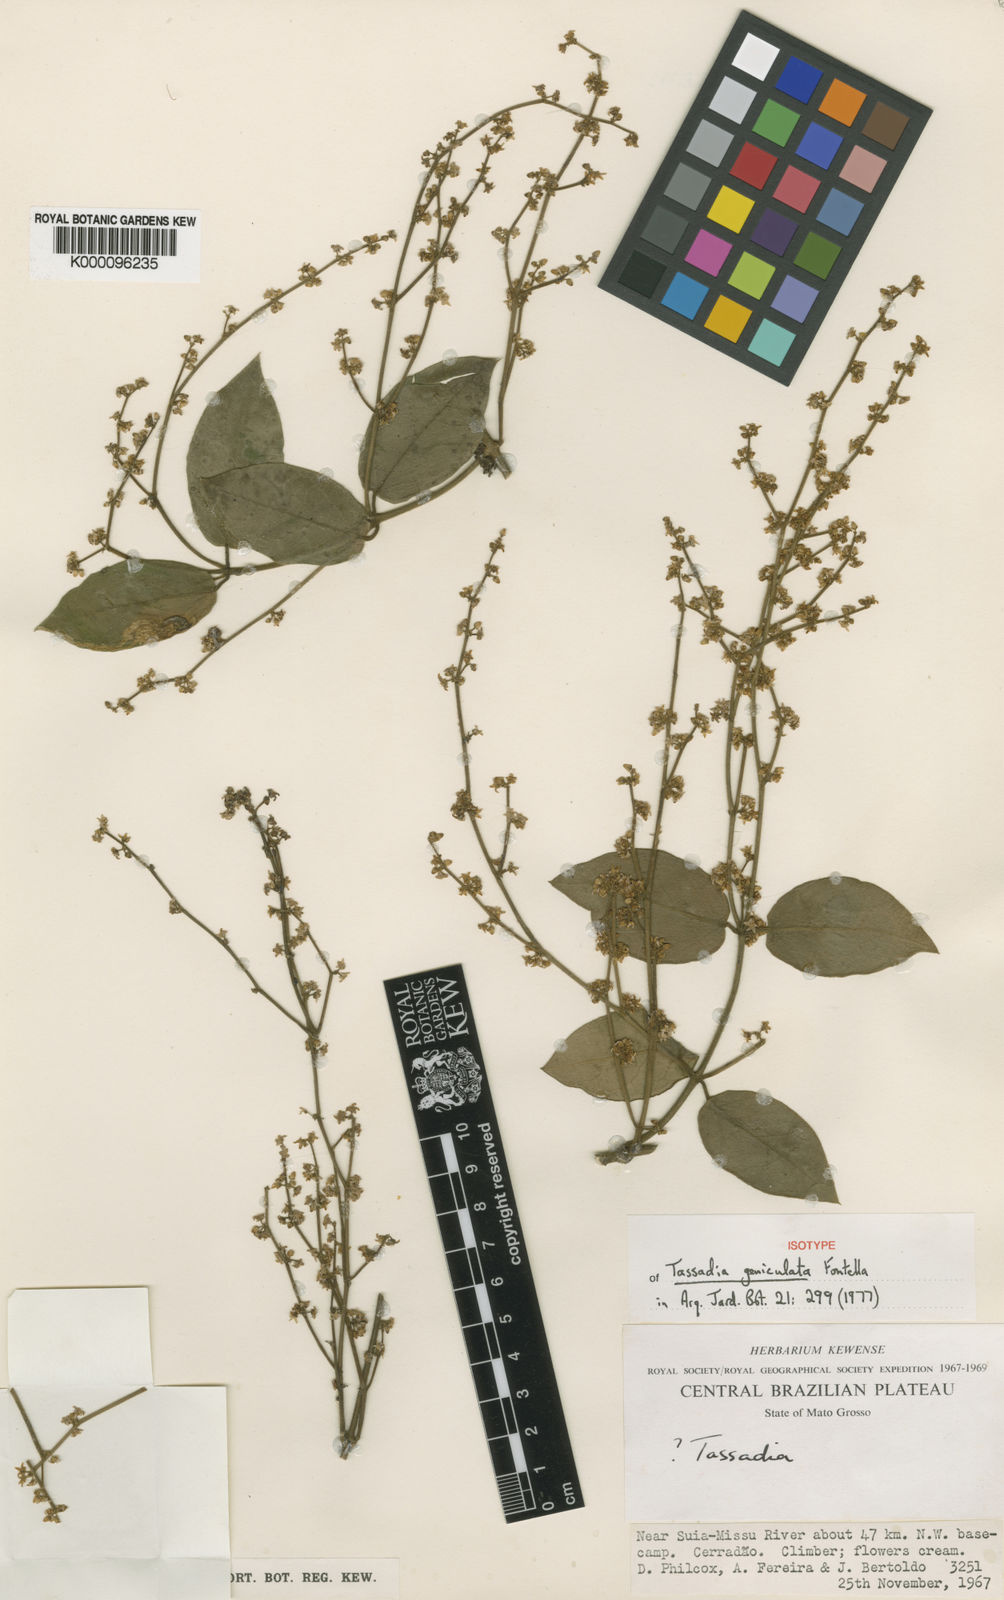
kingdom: Plantae
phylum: Tracheophyta
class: Magnoliopsida
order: Gentianales
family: Apocynaceae
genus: Tassadia
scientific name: Tassadia geniculata
